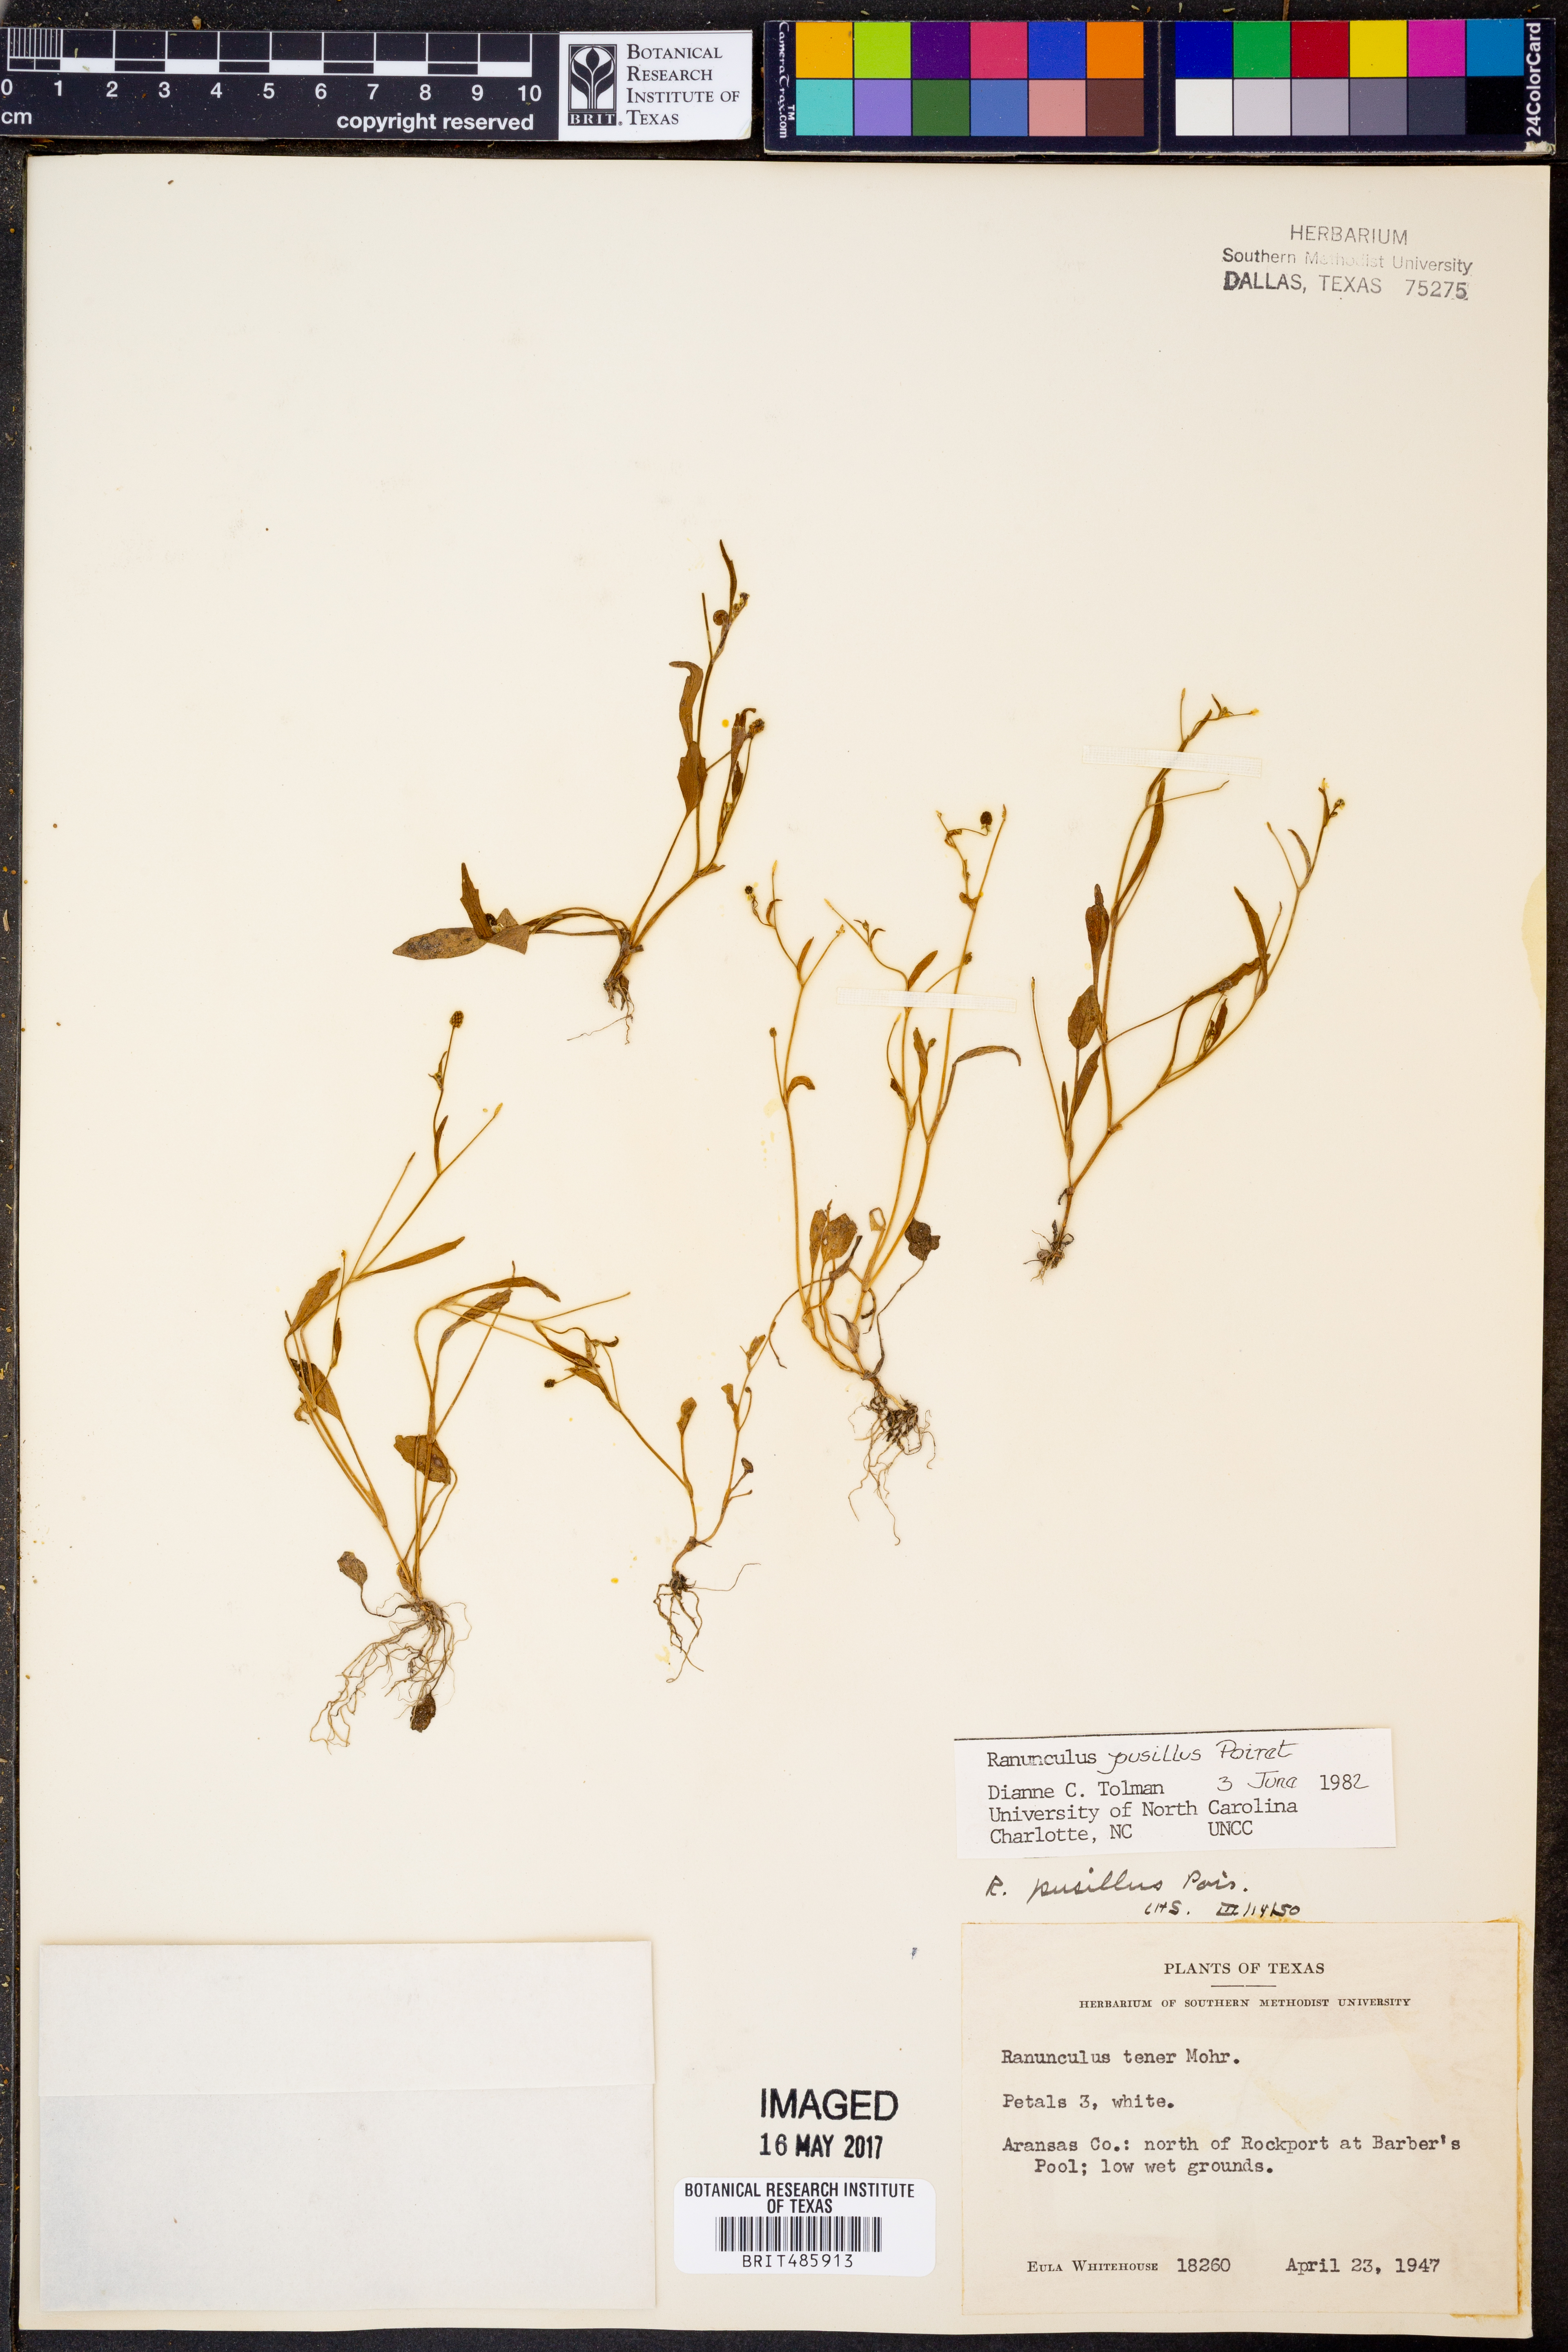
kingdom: Plantae
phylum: Tracheophyta
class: Magnoliopsida
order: Ranunculales
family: Ranunculaceae
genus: Ranunculus
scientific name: Ranunculus pusillus
